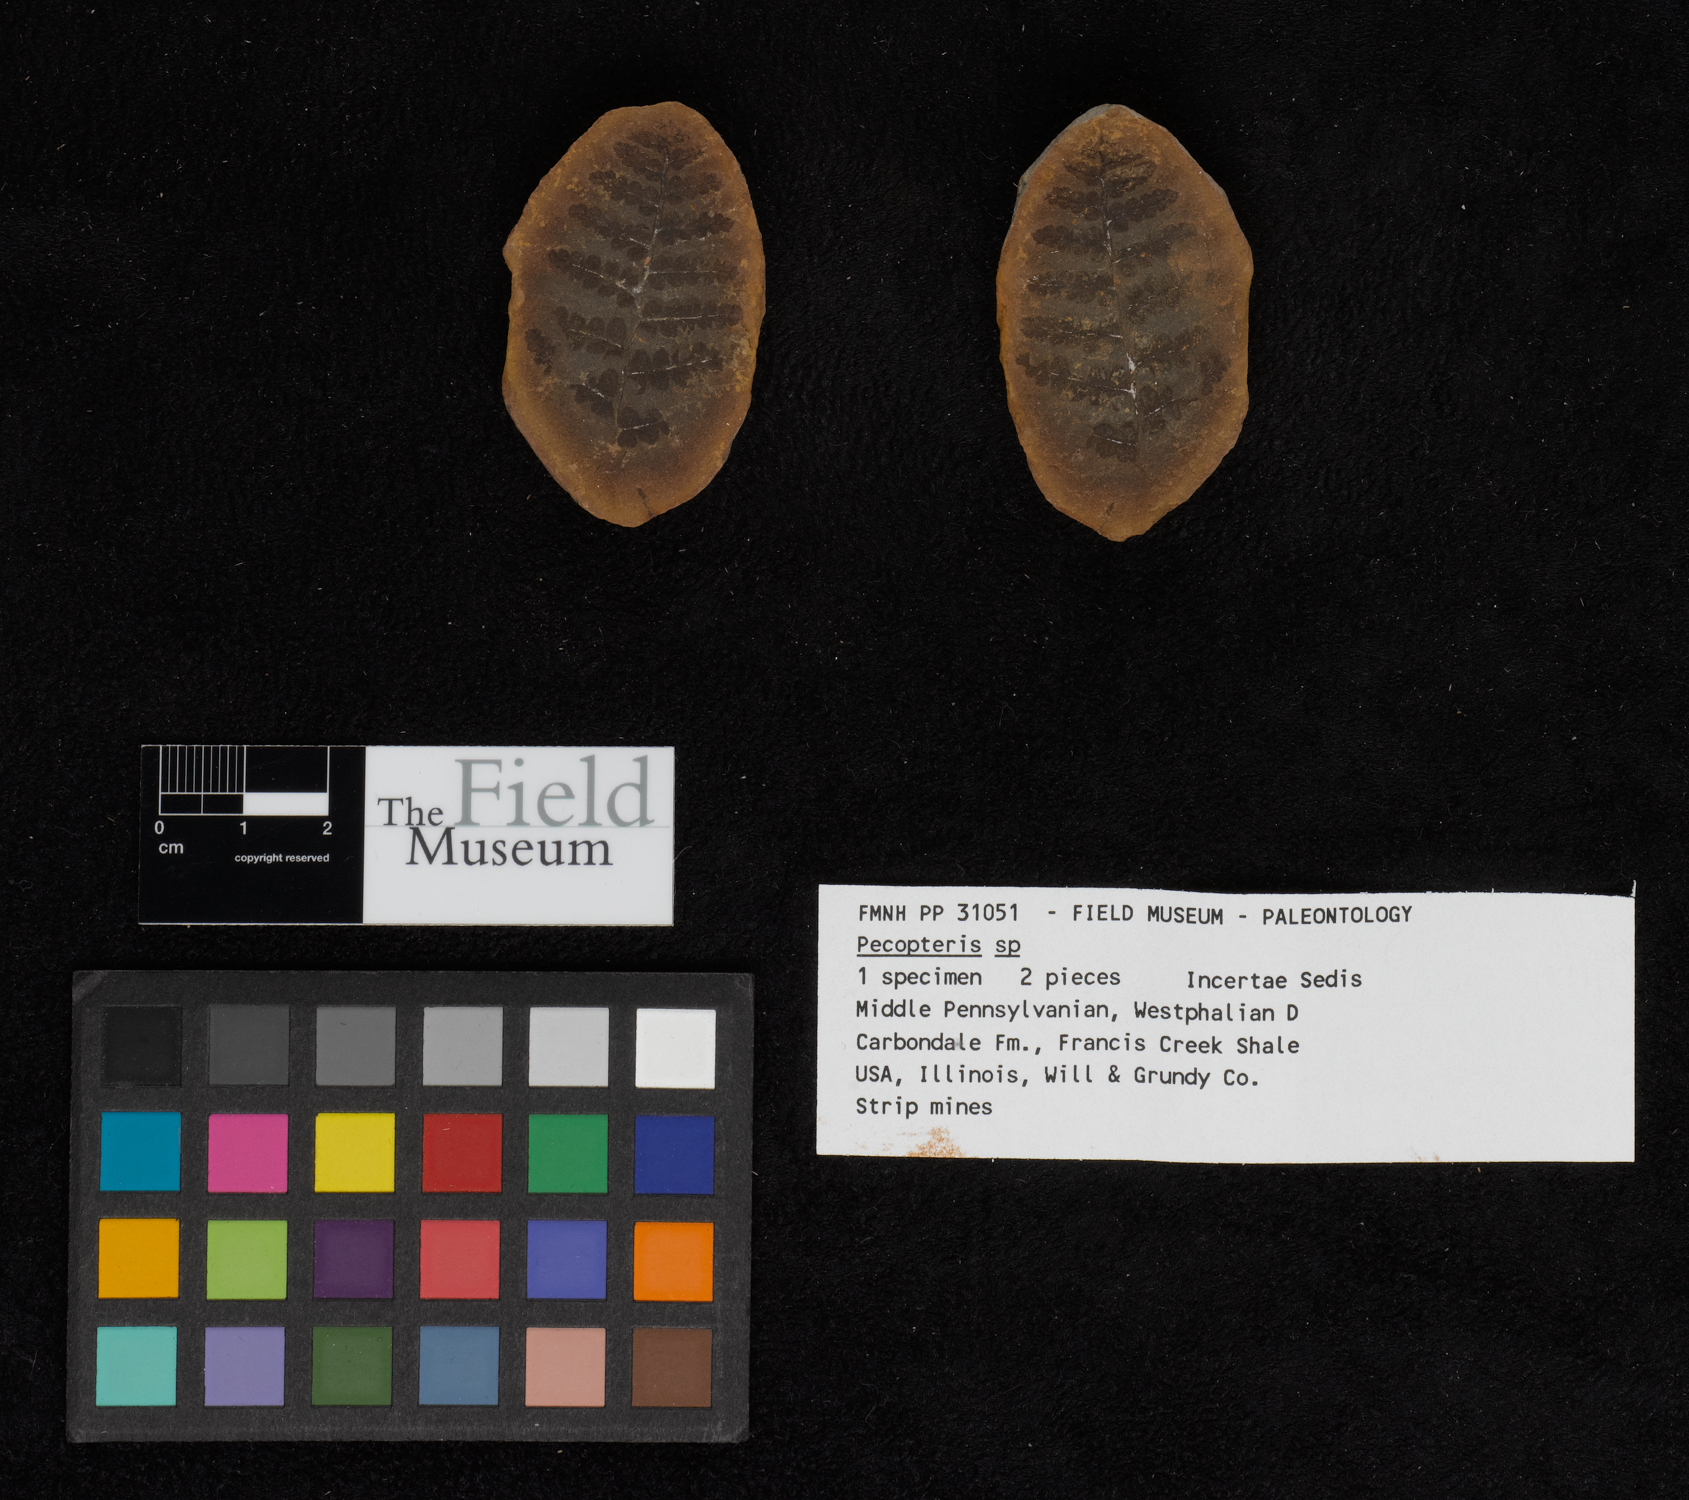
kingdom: Plantae
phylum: Tracheophyta
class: Polypodiopsida
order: Marattiales
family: Asterothecaceae
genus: Pecopteris
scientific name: Pecopteris
